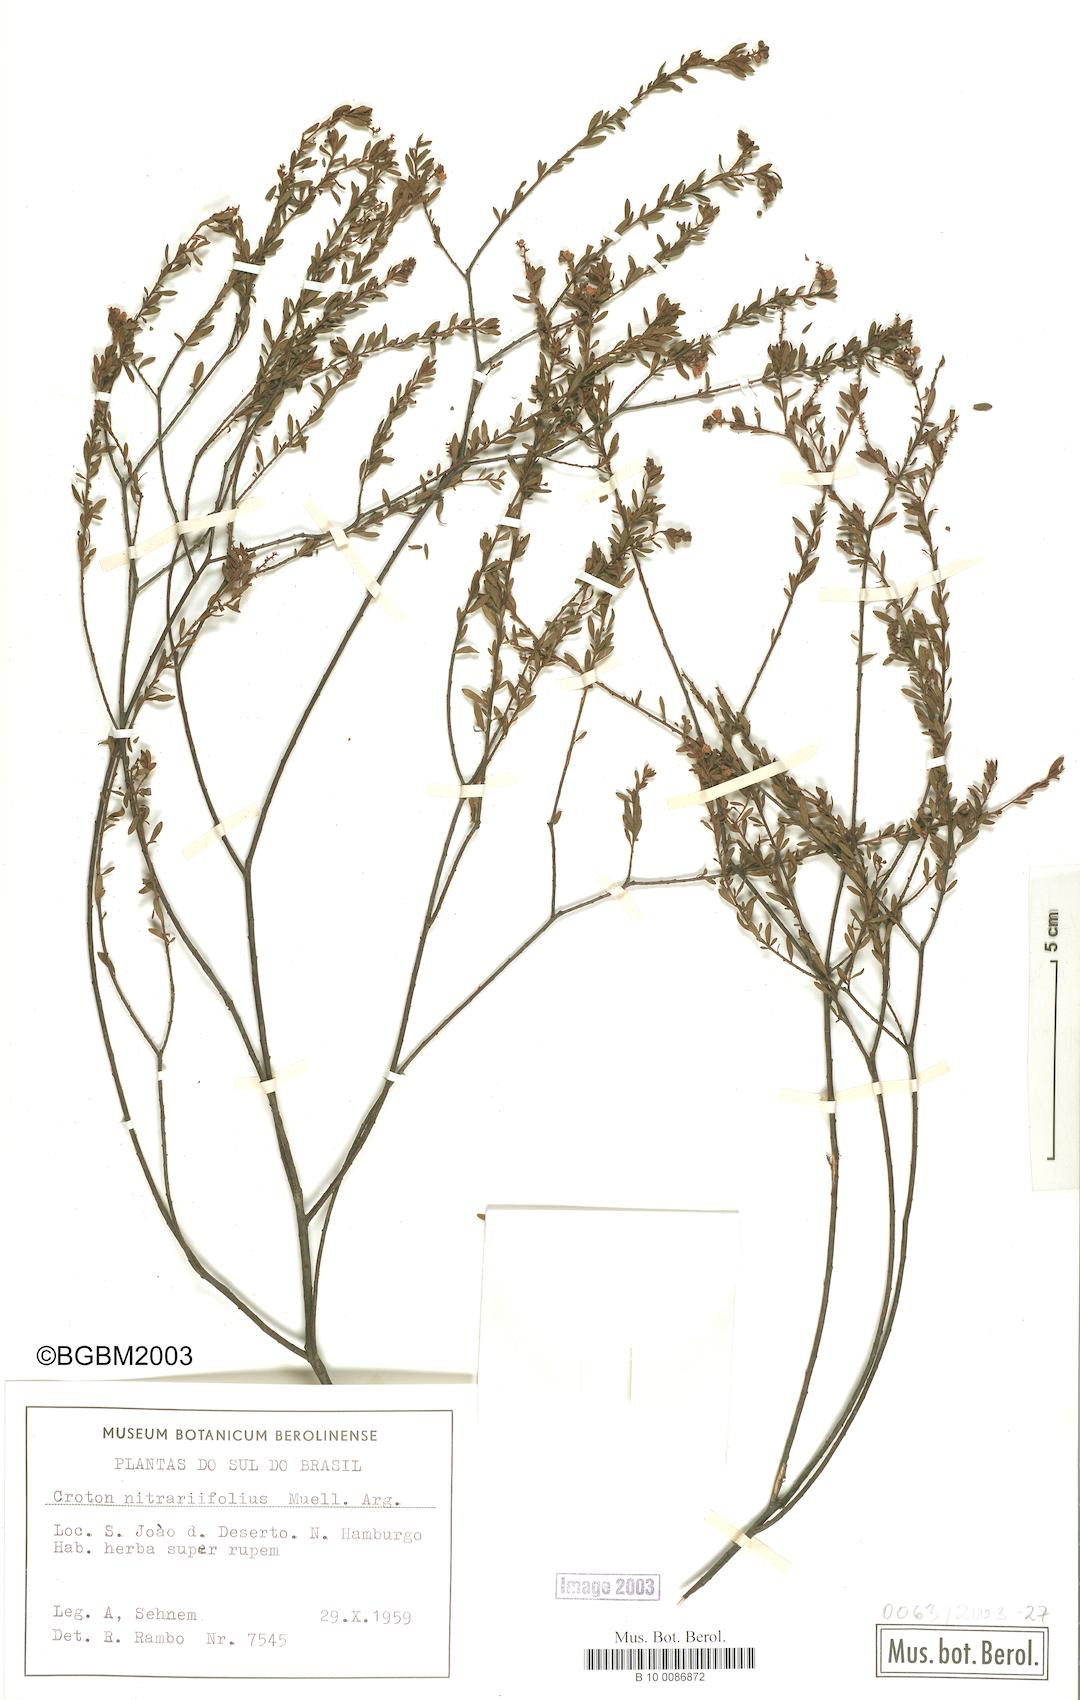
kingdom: Plantae
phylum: Tracheophyta
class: Magnoliopsida
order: Malpighiales
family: Euphorbiaceae
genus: Croton
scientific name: Croton nitrariifolius
